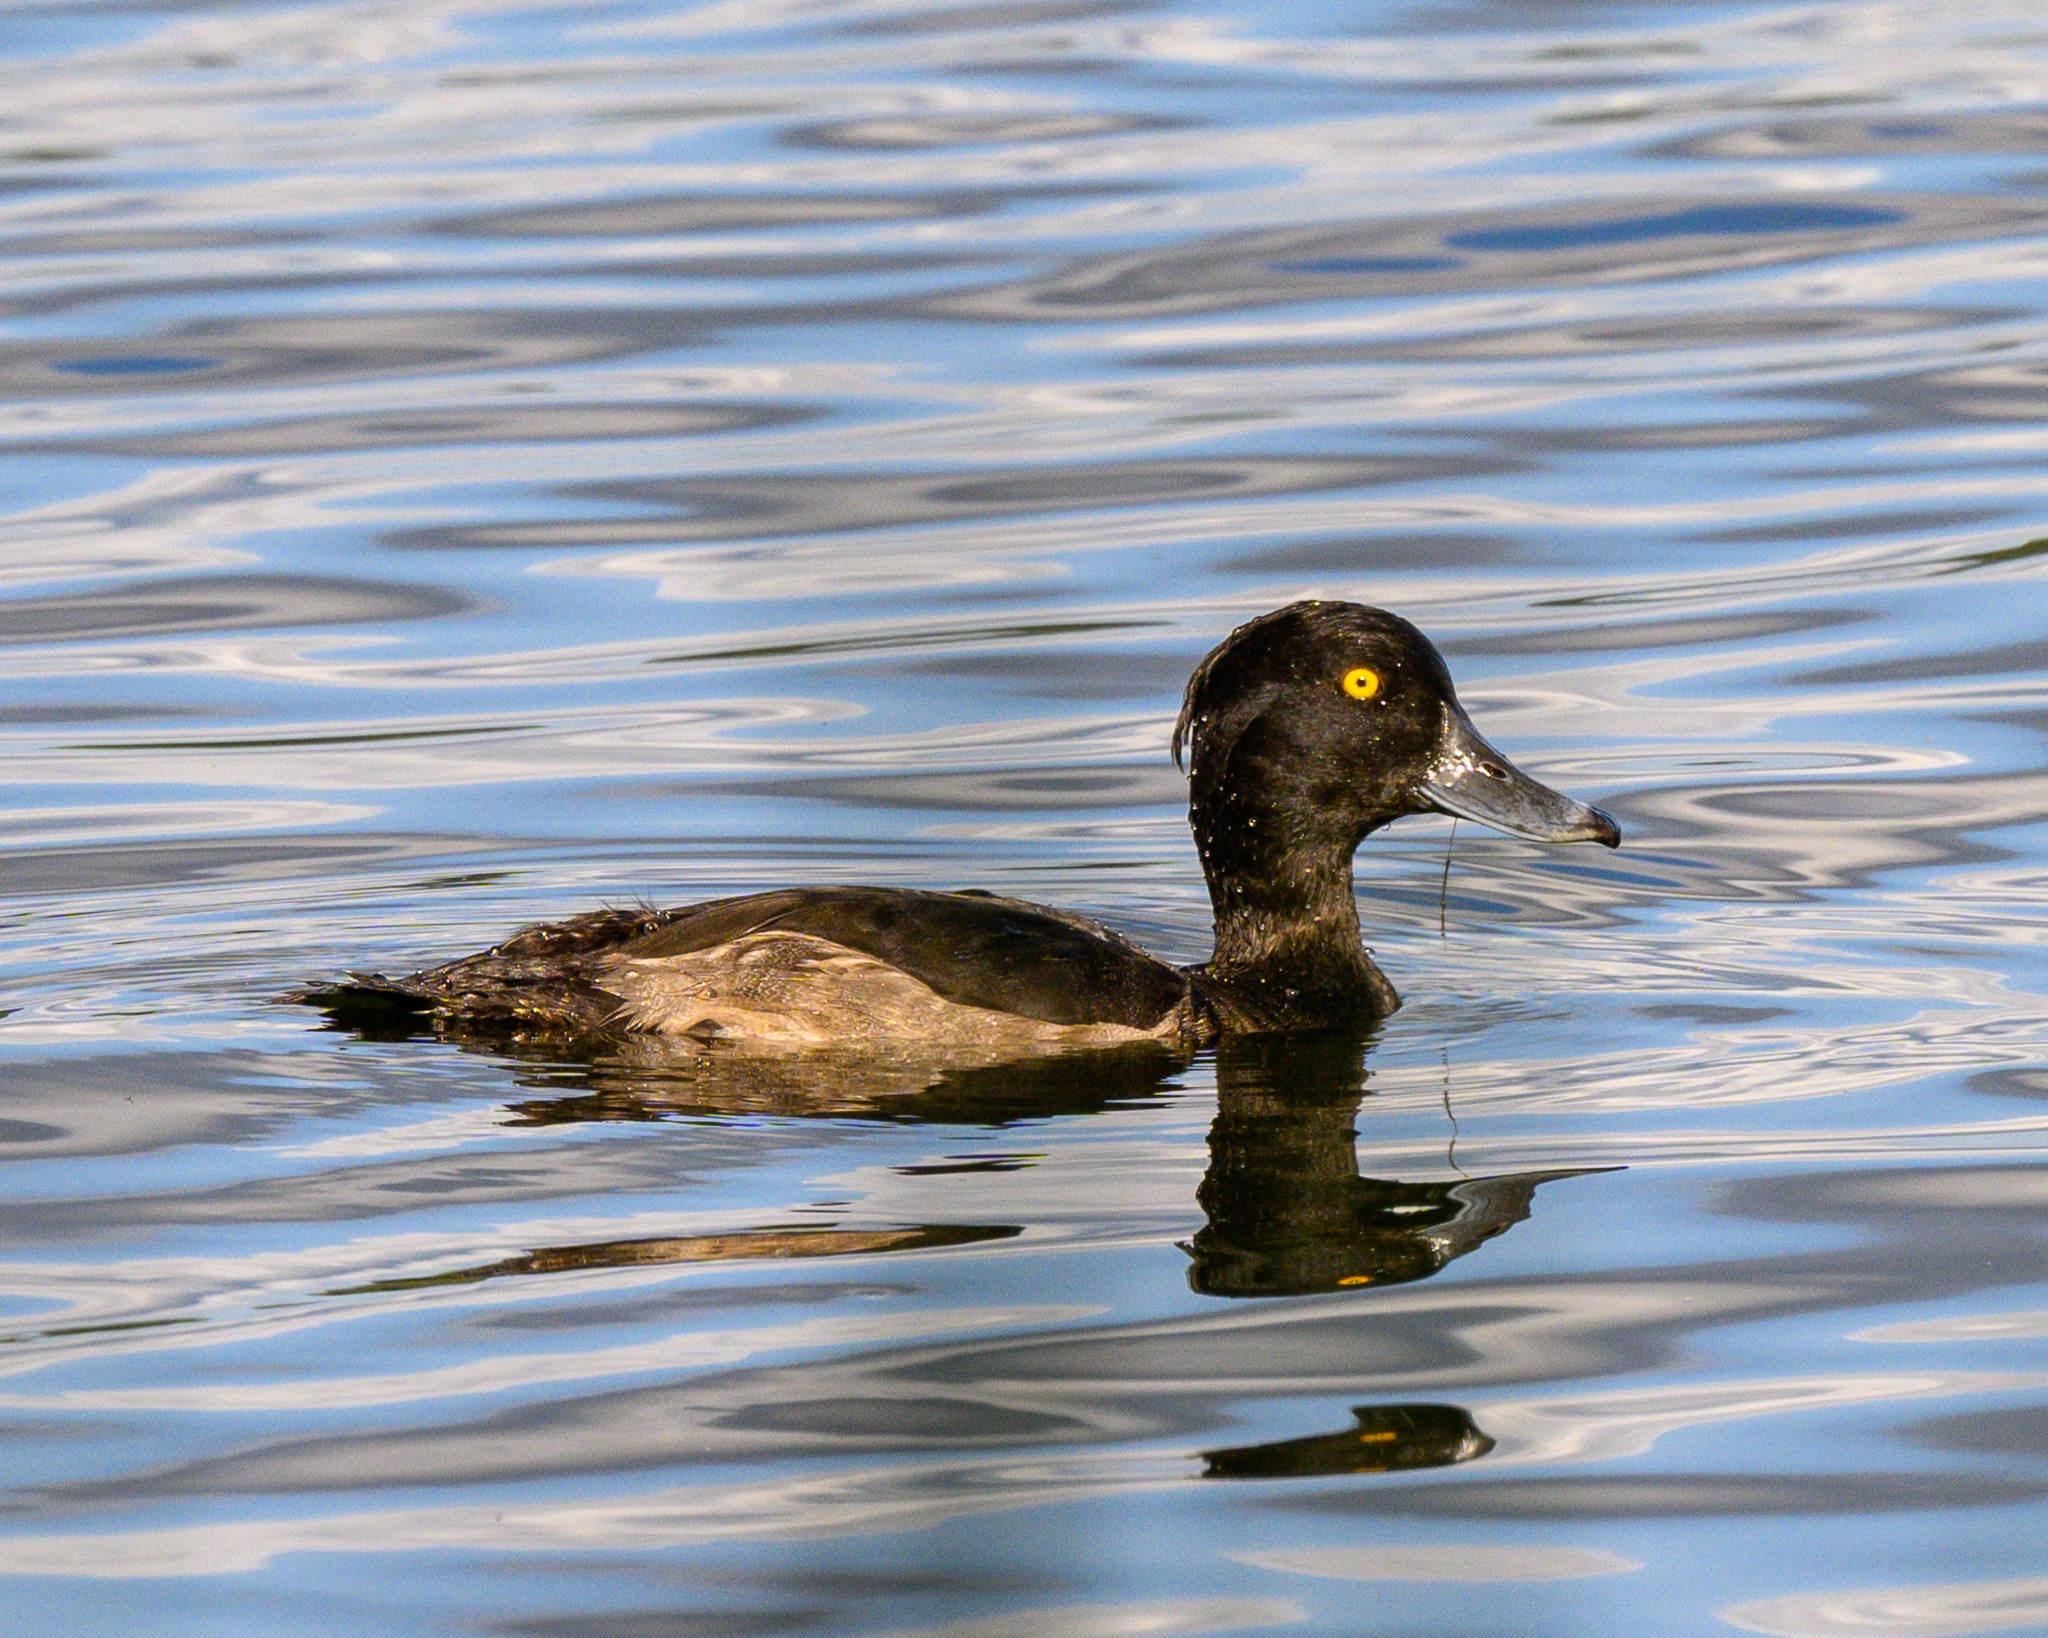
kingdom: Animalia
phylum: Chordata
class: Aves
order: Anseriformes
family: Anatidae
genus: Aythya
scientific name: Aythya fuligula
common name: Troldand
